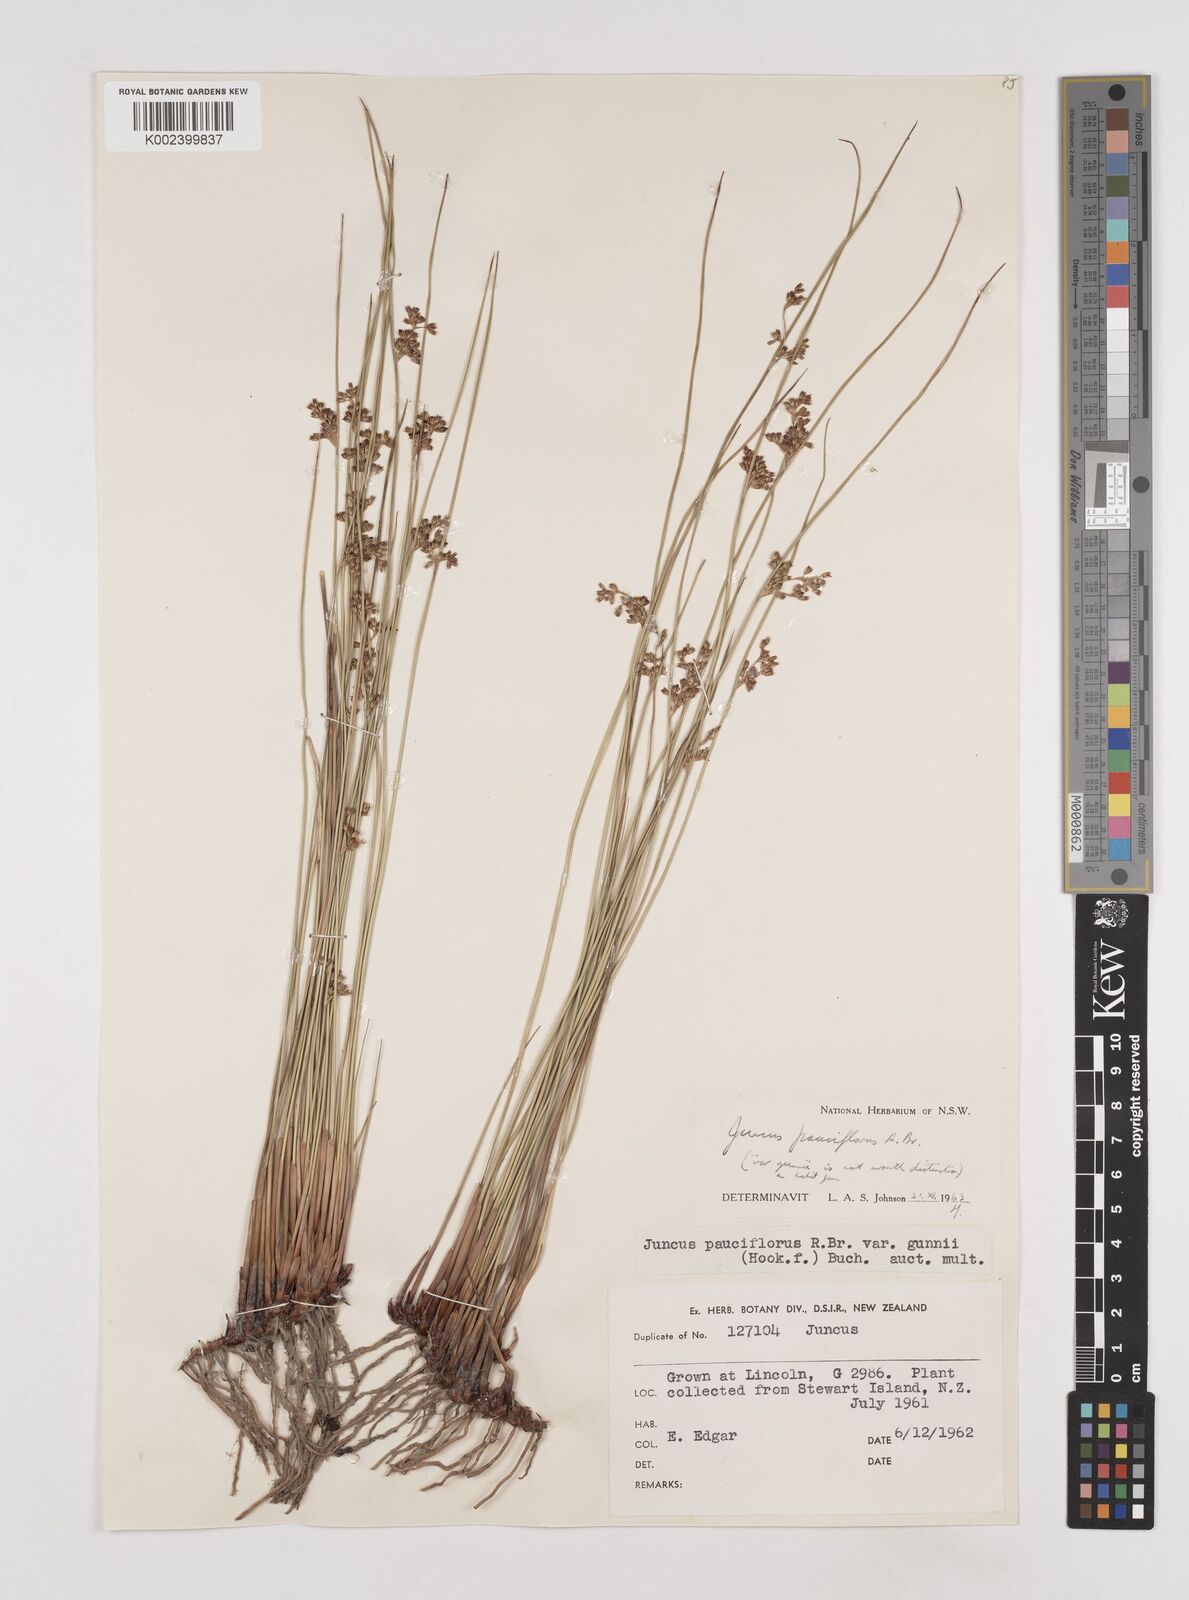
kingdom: Plantae
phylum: Tracheophyta
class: Liliopsida
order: Poales
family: Juncaceae
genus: Juncus
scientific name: Juncus pallidus
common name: Great soft-rush
